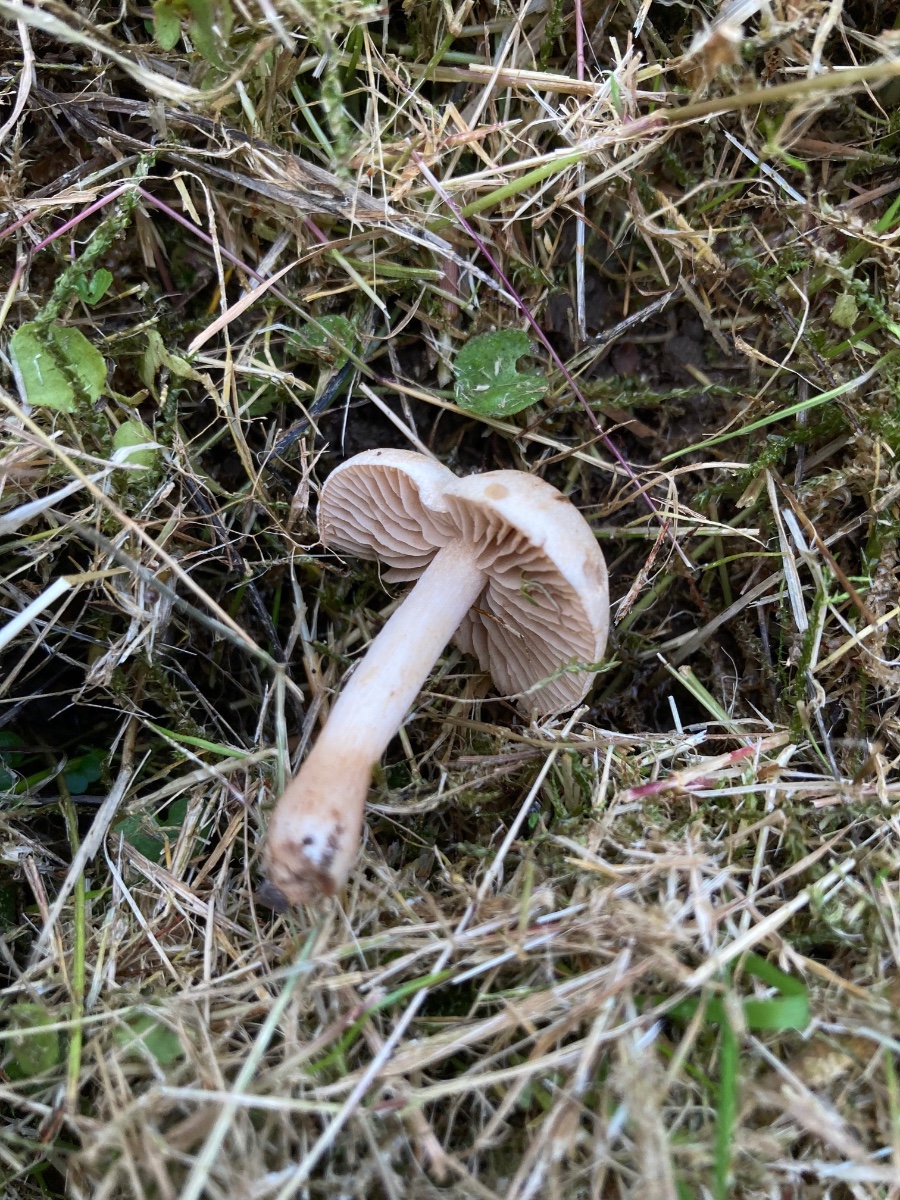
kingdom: Fungi
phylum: Basidiomycota
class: Agaricomycetes
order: Agaricales
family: Hymenogastraceae
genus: Hebeloma
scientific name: Hebeloma sacchariolens
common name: sødtduftende tåreblad
